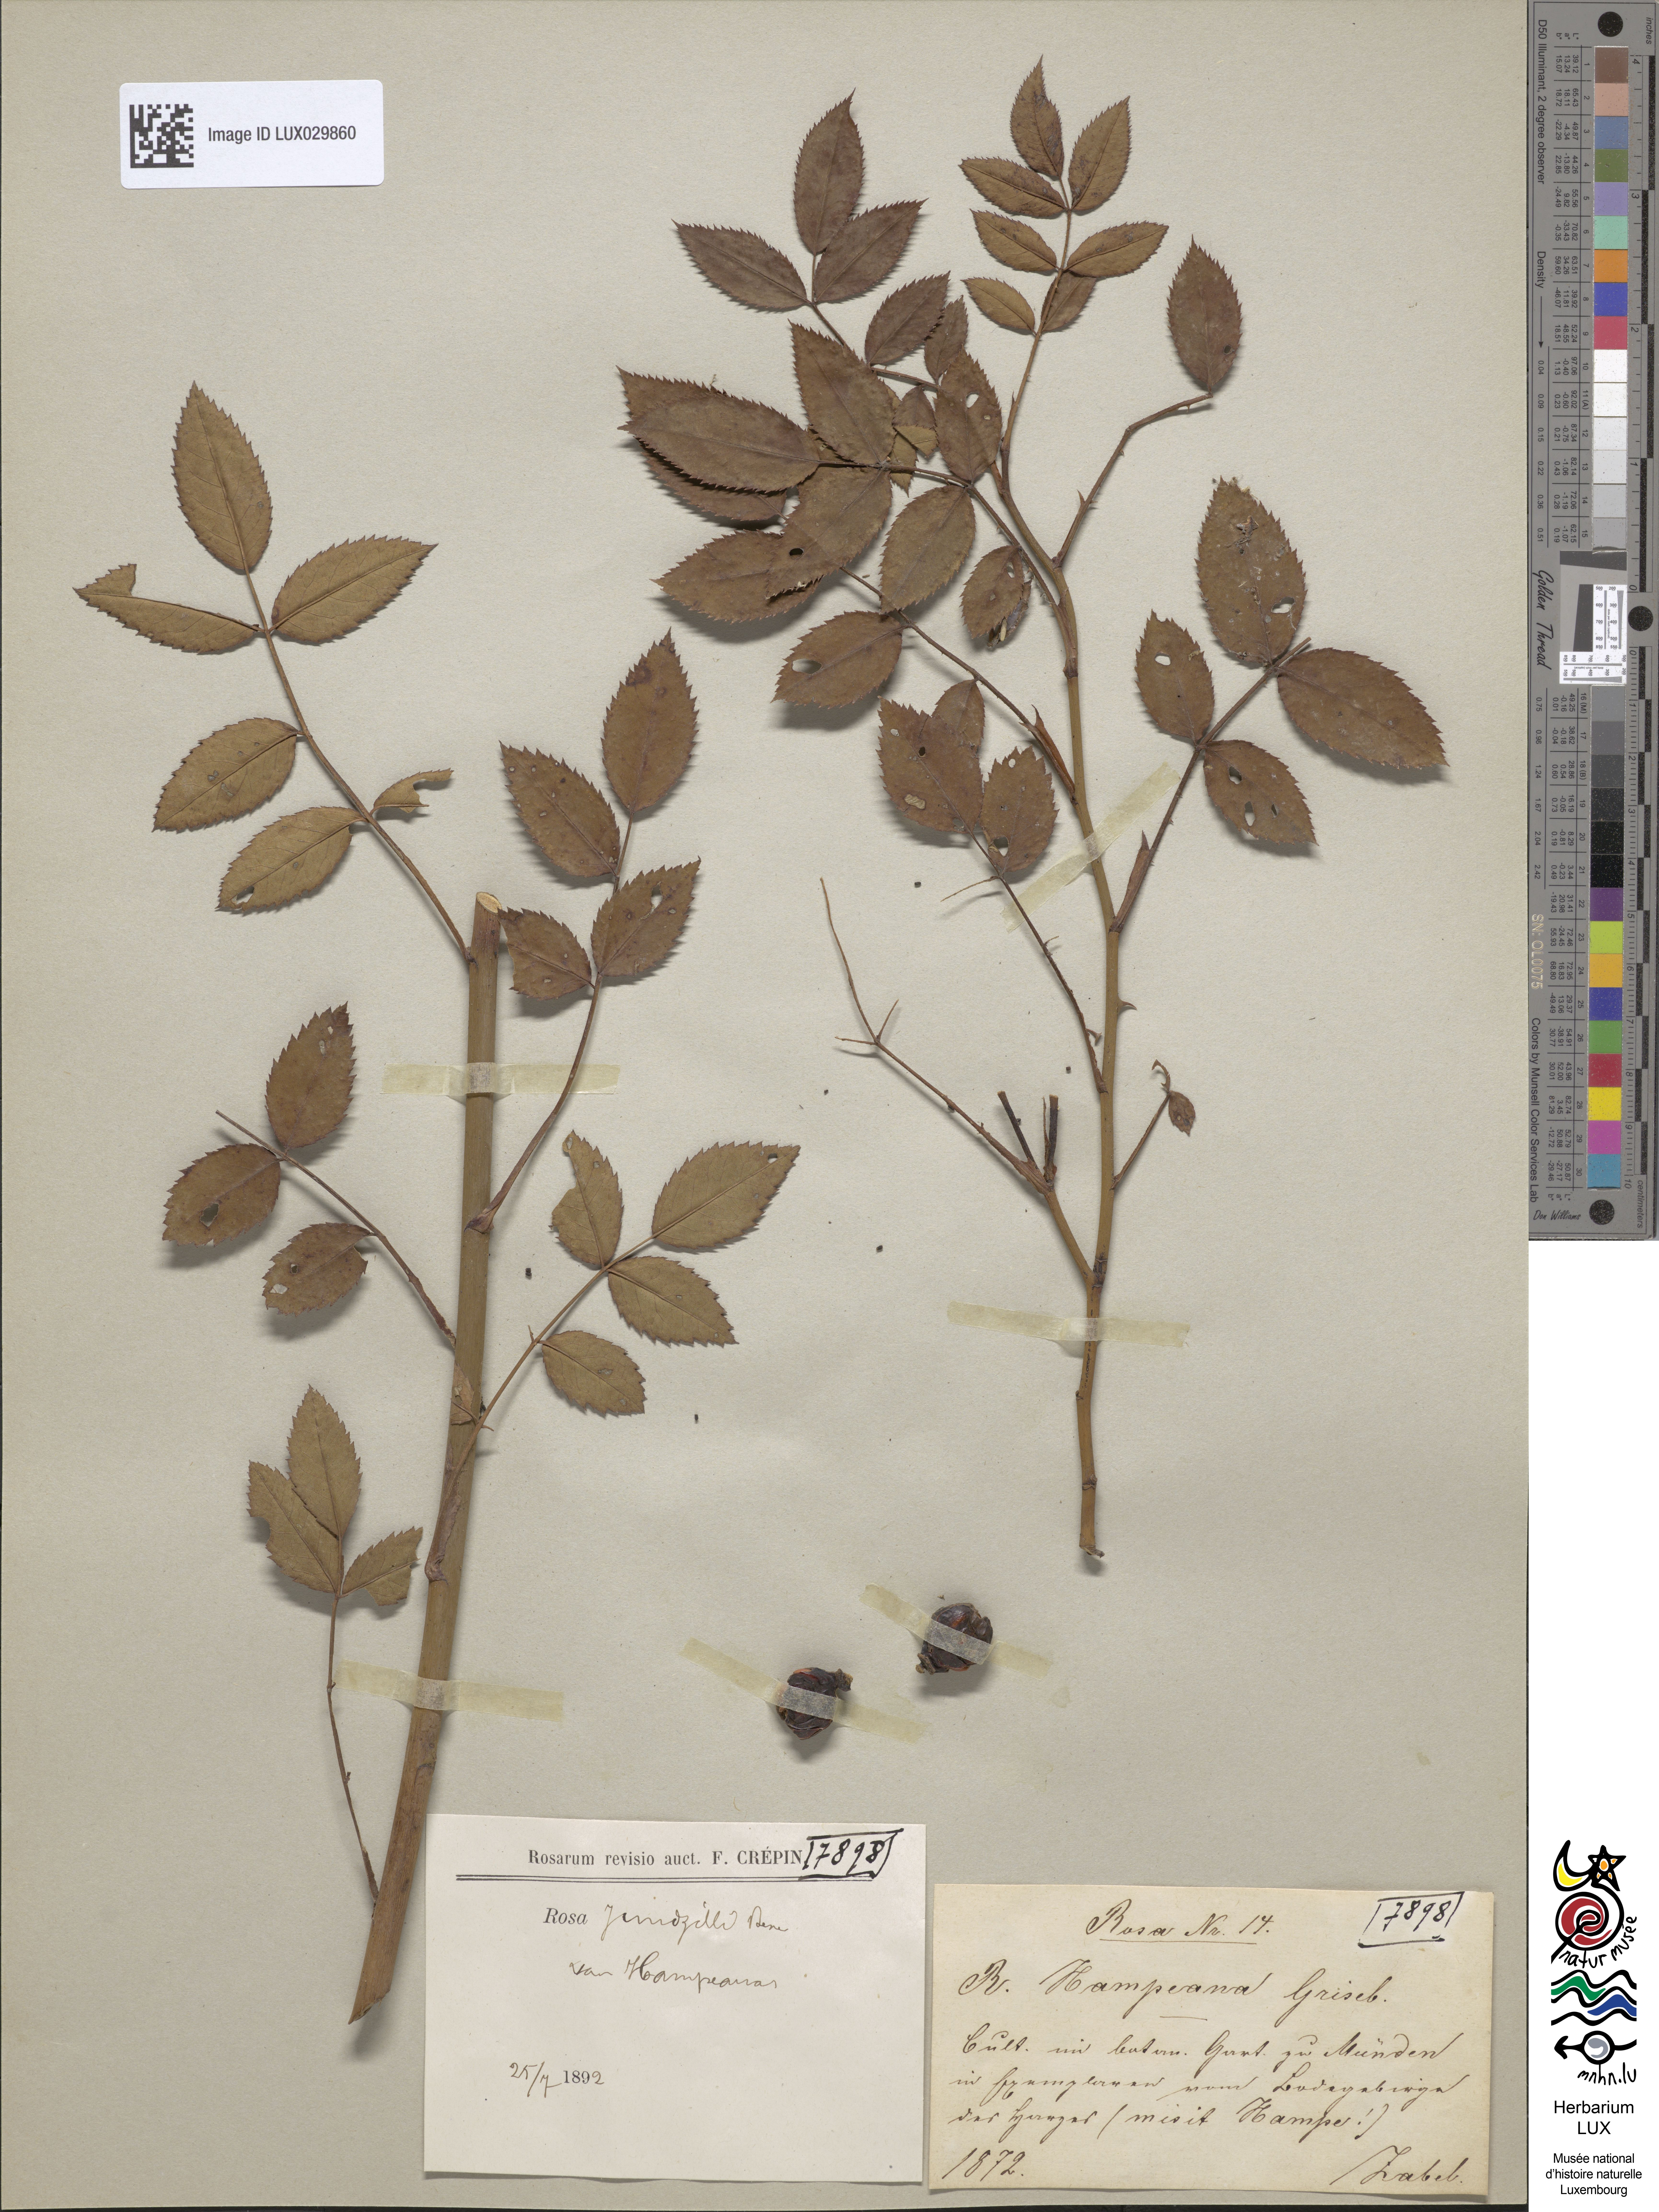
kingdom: Plantae
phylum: Tracheophyta
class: Magnoliopsida
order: Rosales
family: Rosaceae
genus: Rosa
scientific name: Rosa marginata
